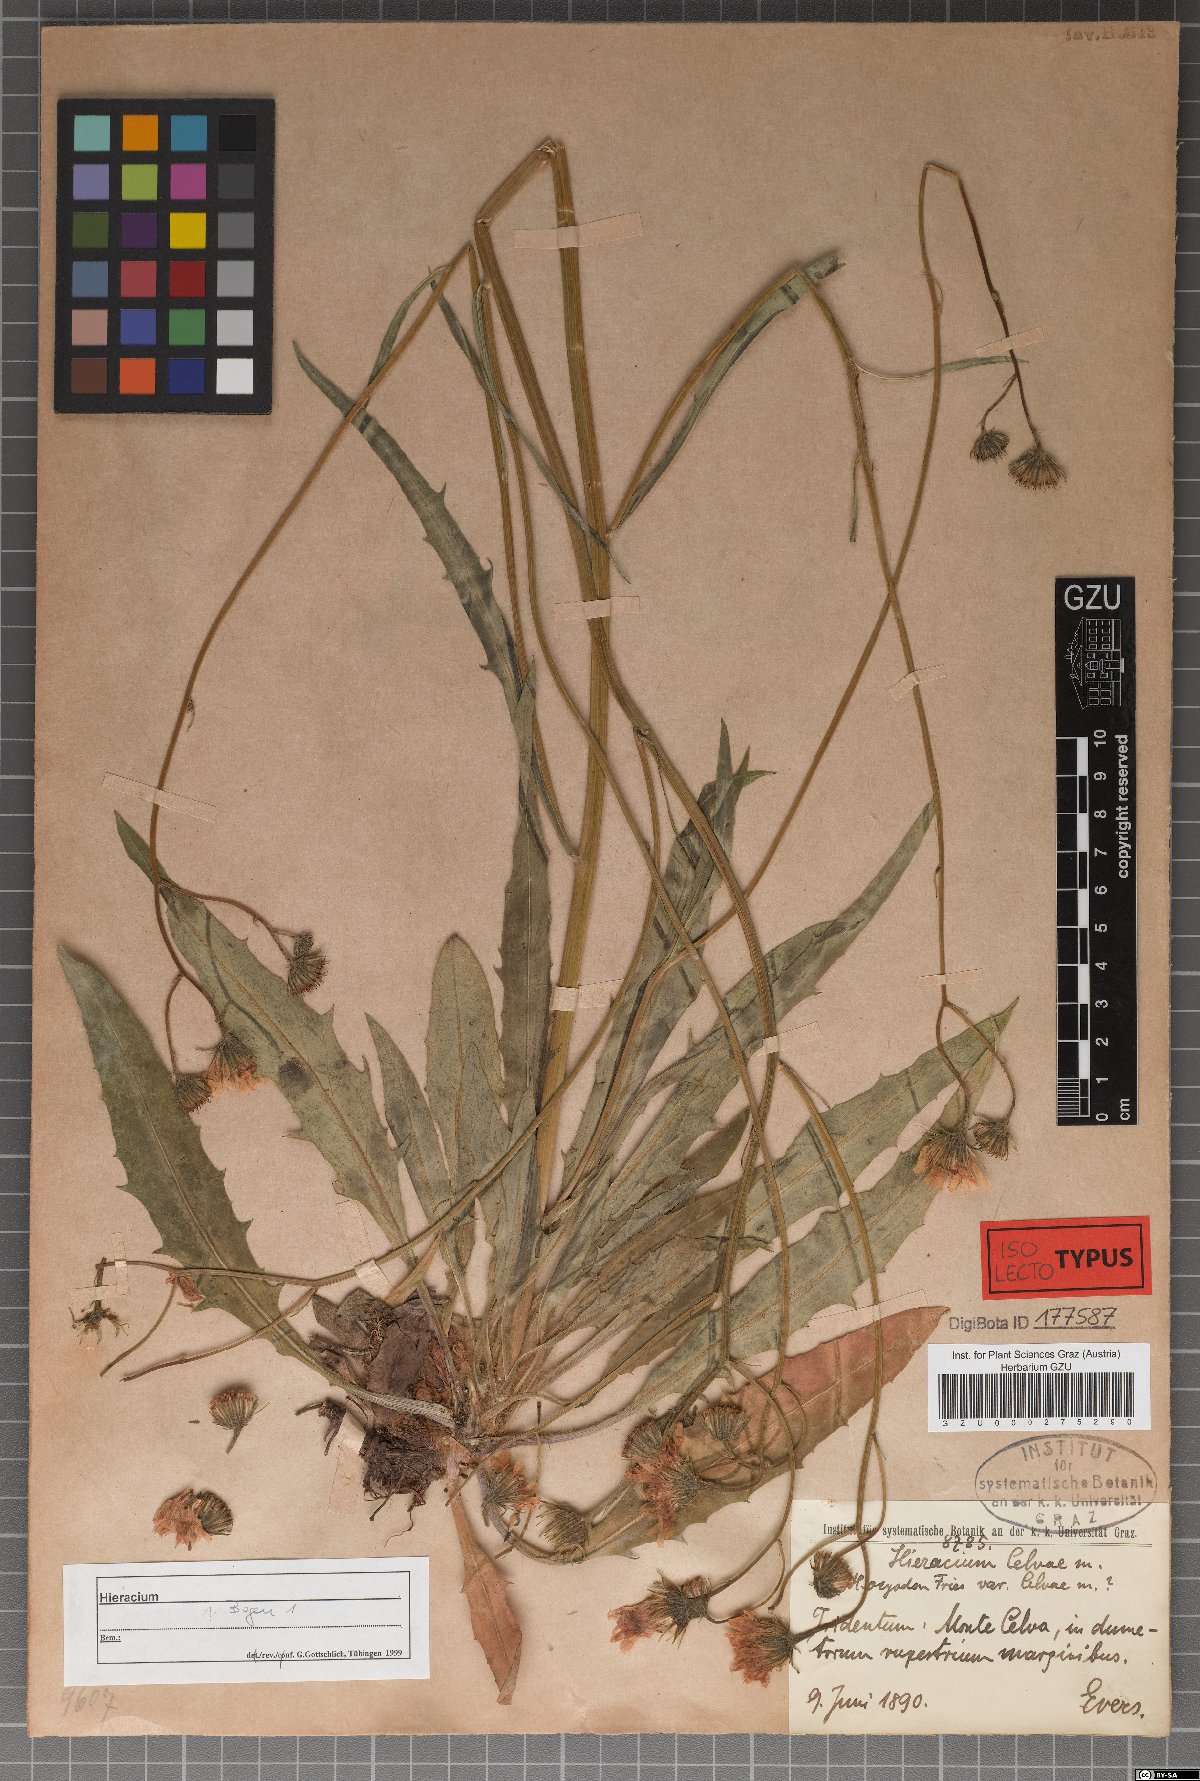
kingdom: Plantae
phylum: Tracheophyta
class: Magnoliopsida
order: Asterales
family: Asteraceae
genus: Hieracium
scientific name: Hieracium celvae
